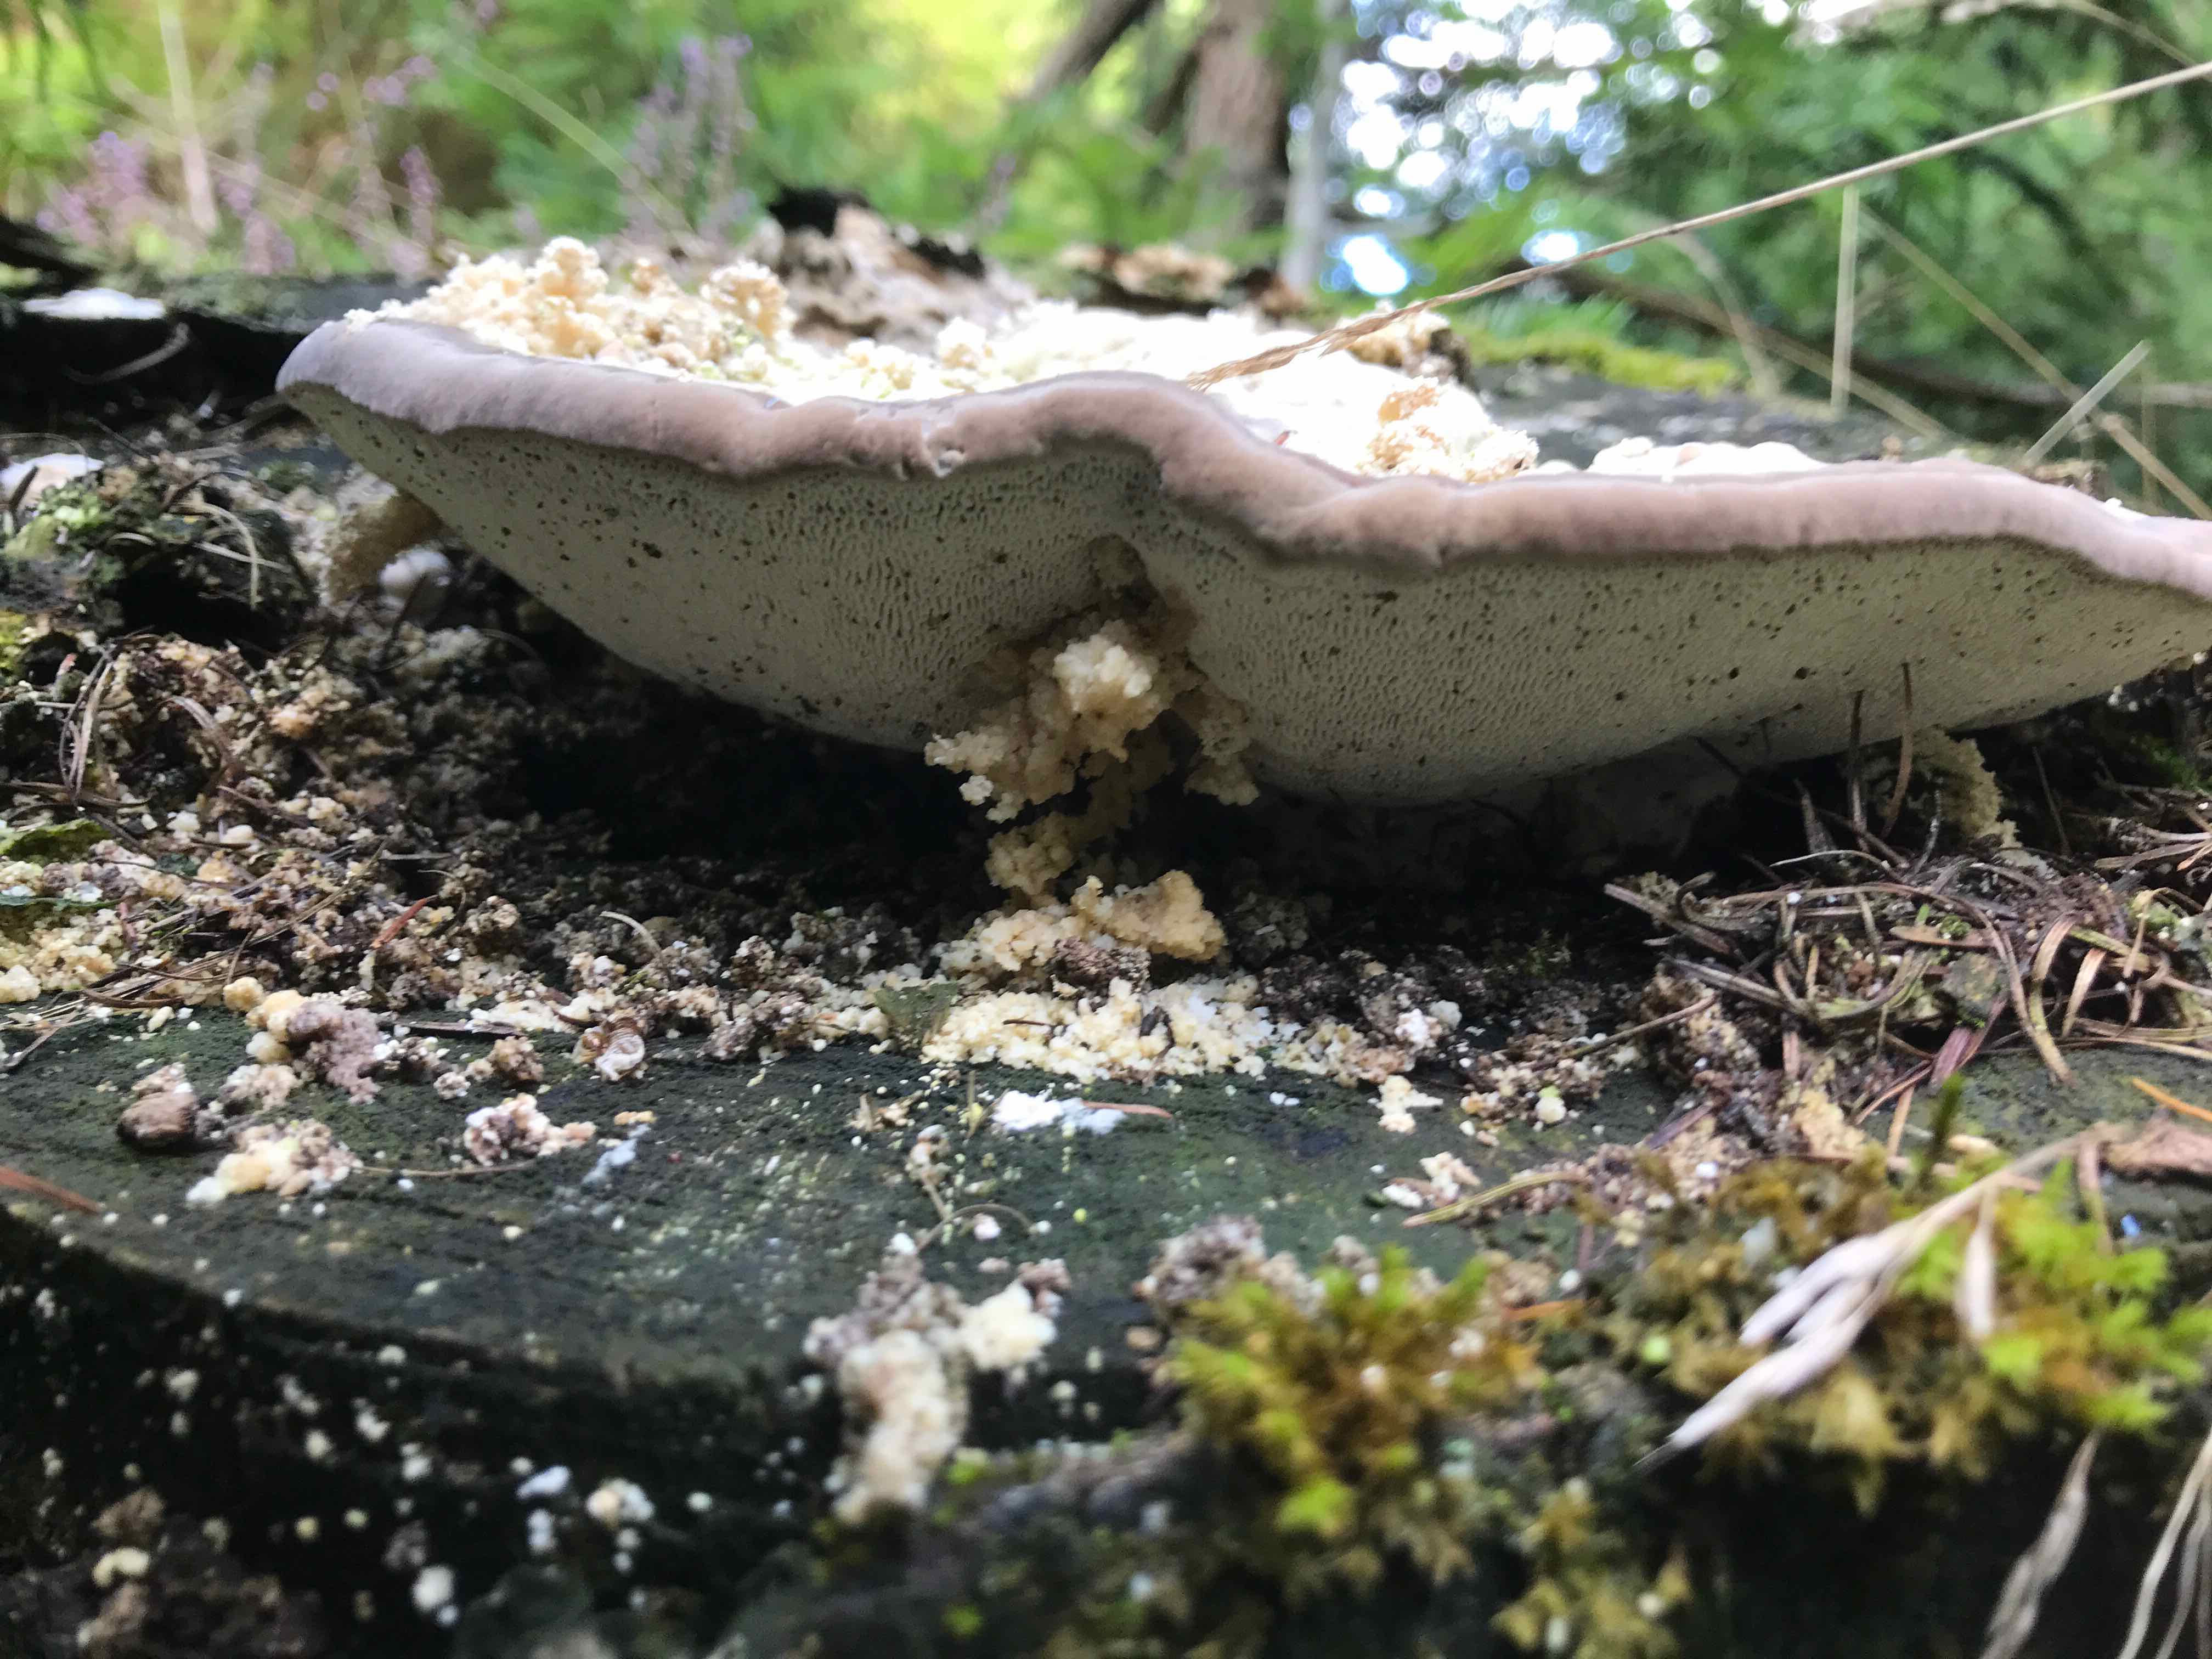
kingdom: Fungi
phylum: Basidiomycota
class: Agaricomycetes
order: Polyporales
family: Polyporaceae
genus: Trametes
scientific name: Trametes gibbosa
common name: puklet læderporesvamp
